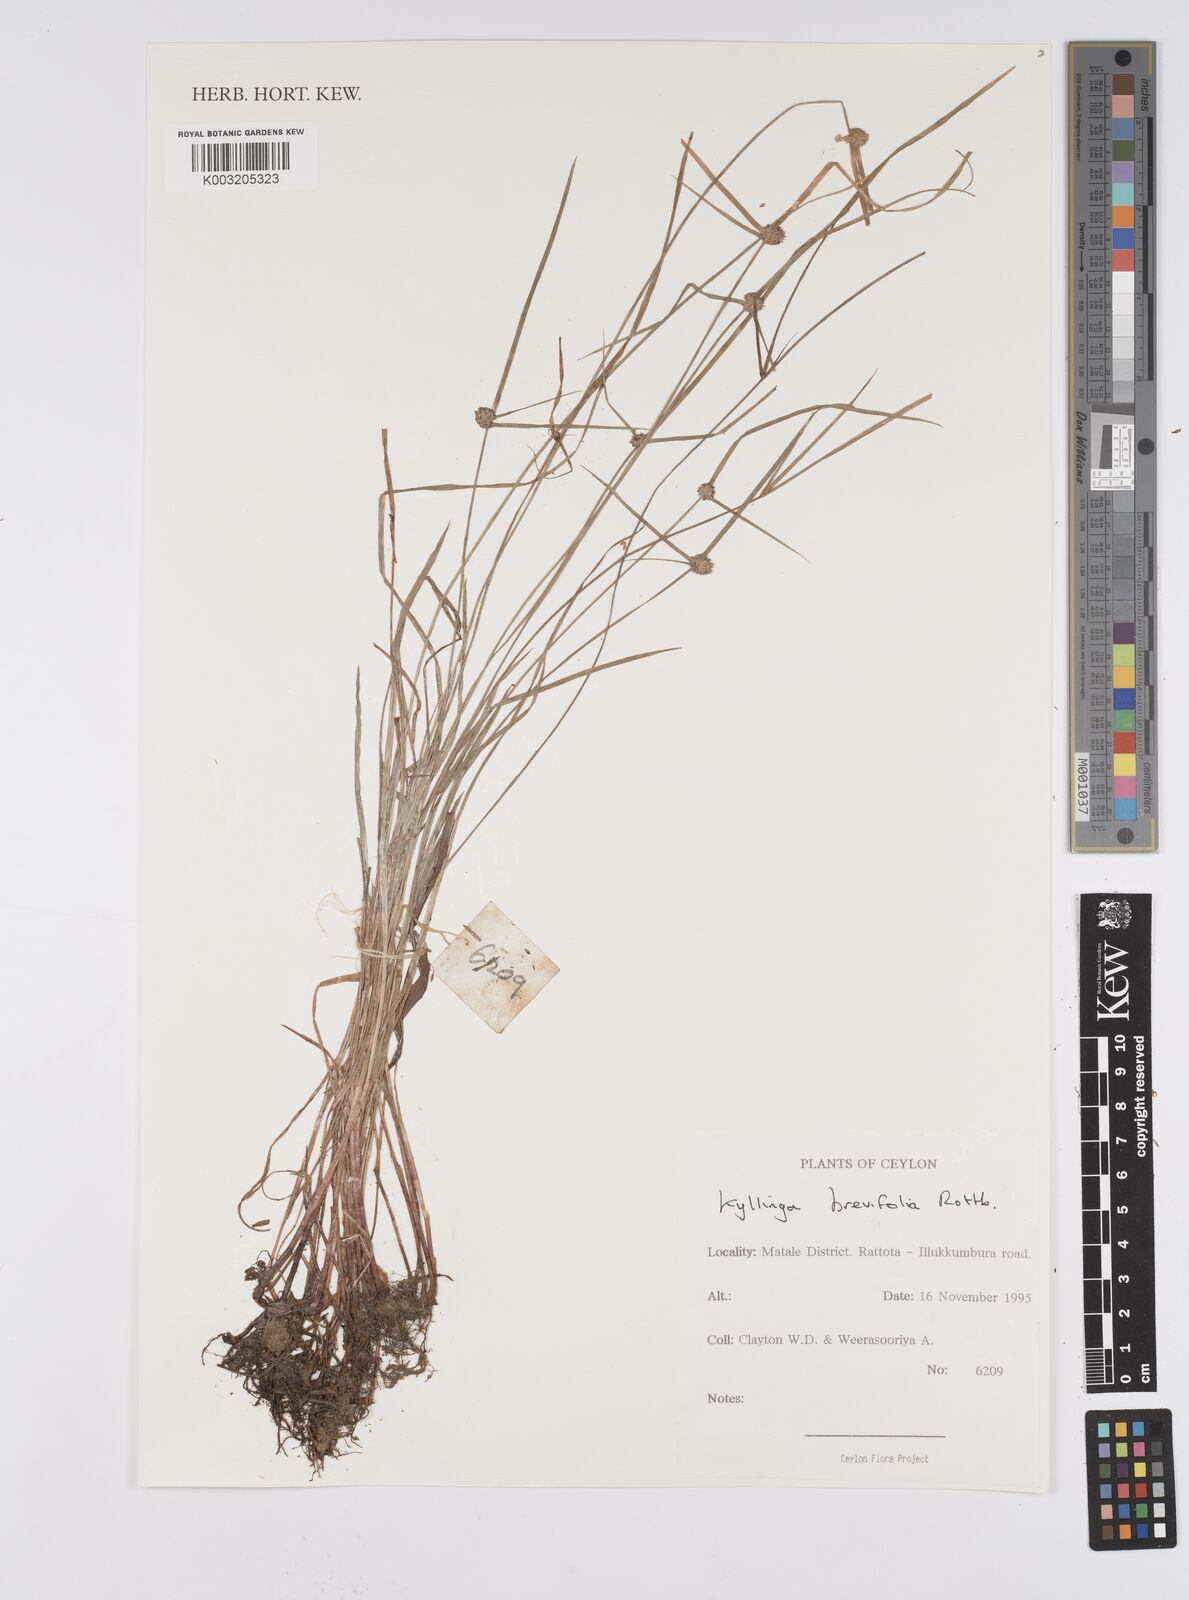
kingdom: Plantae
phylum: Tracheophyta
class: Liliopsida
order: Poales
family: Cyperaceae
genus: Cyperus
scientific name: Cyperus brevifolius
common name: Globe kyllinga
